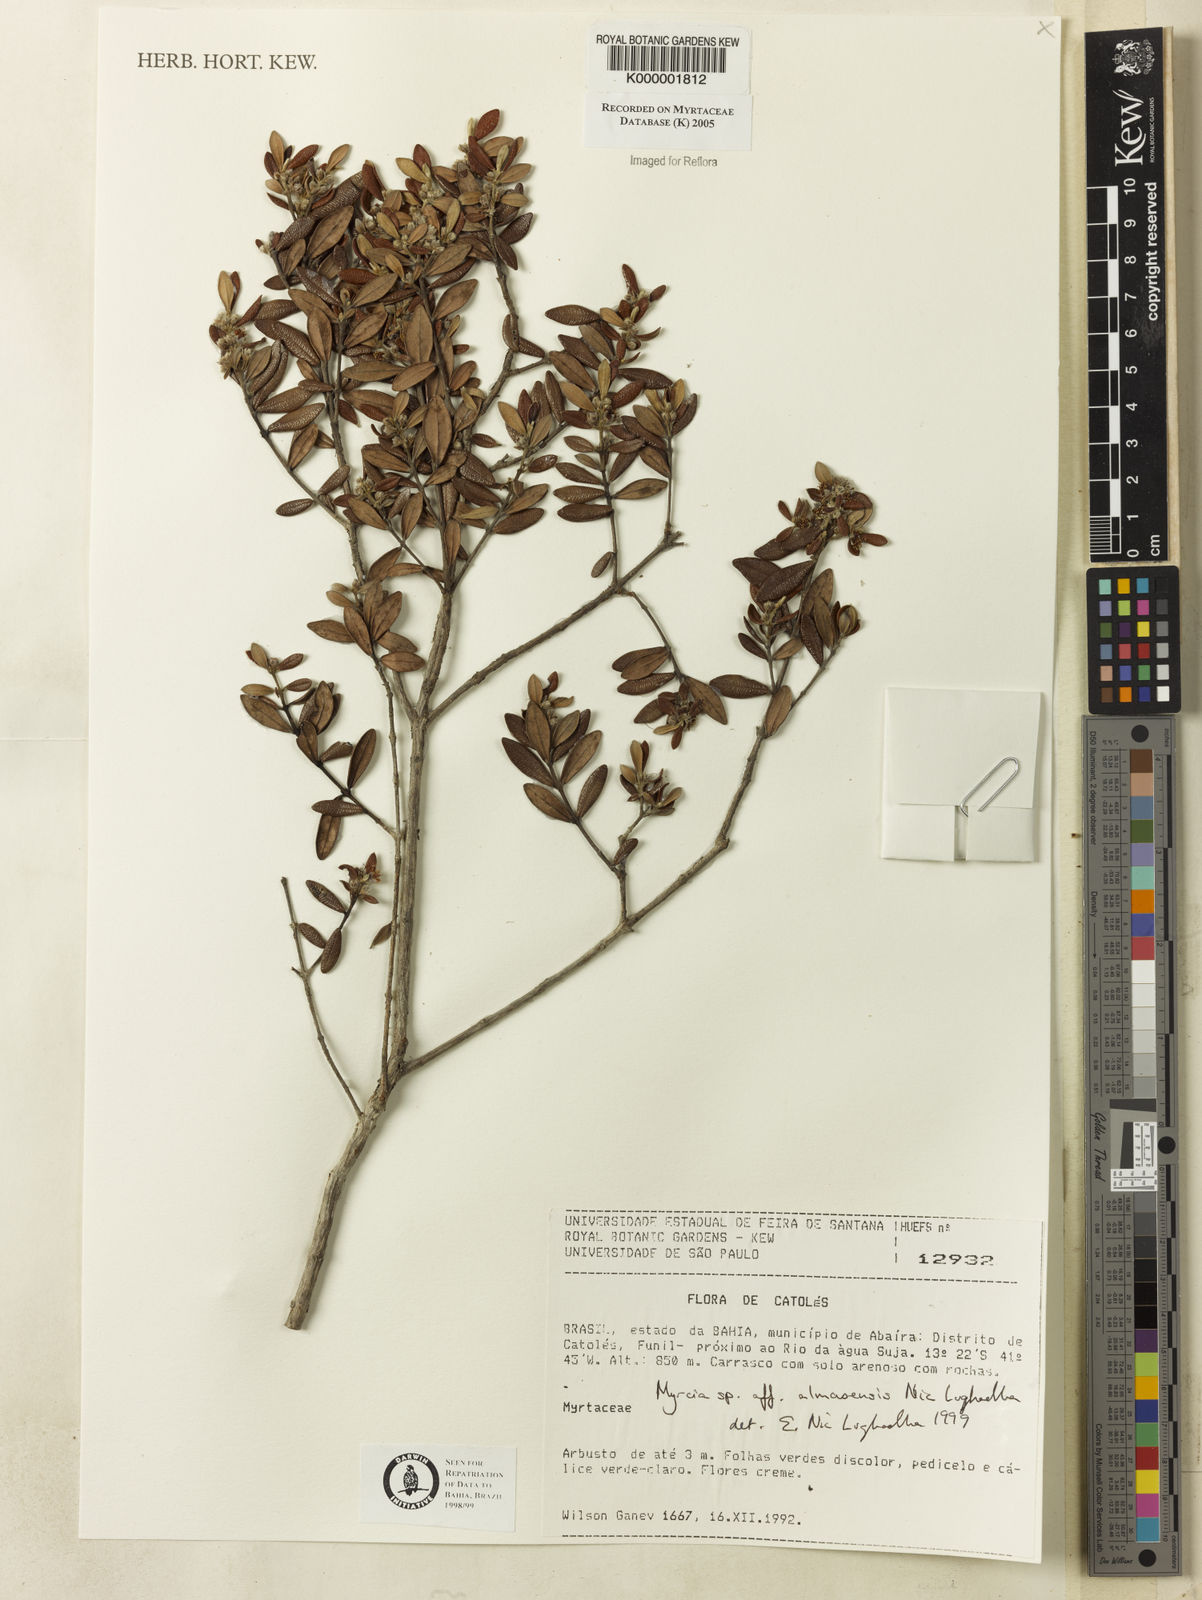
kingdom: Plantae
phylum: Tracheophyta
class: Magnoliopsida
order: Myrtales
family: Myrtaceae
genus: Myrcia
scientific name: Myrcia almasensis
